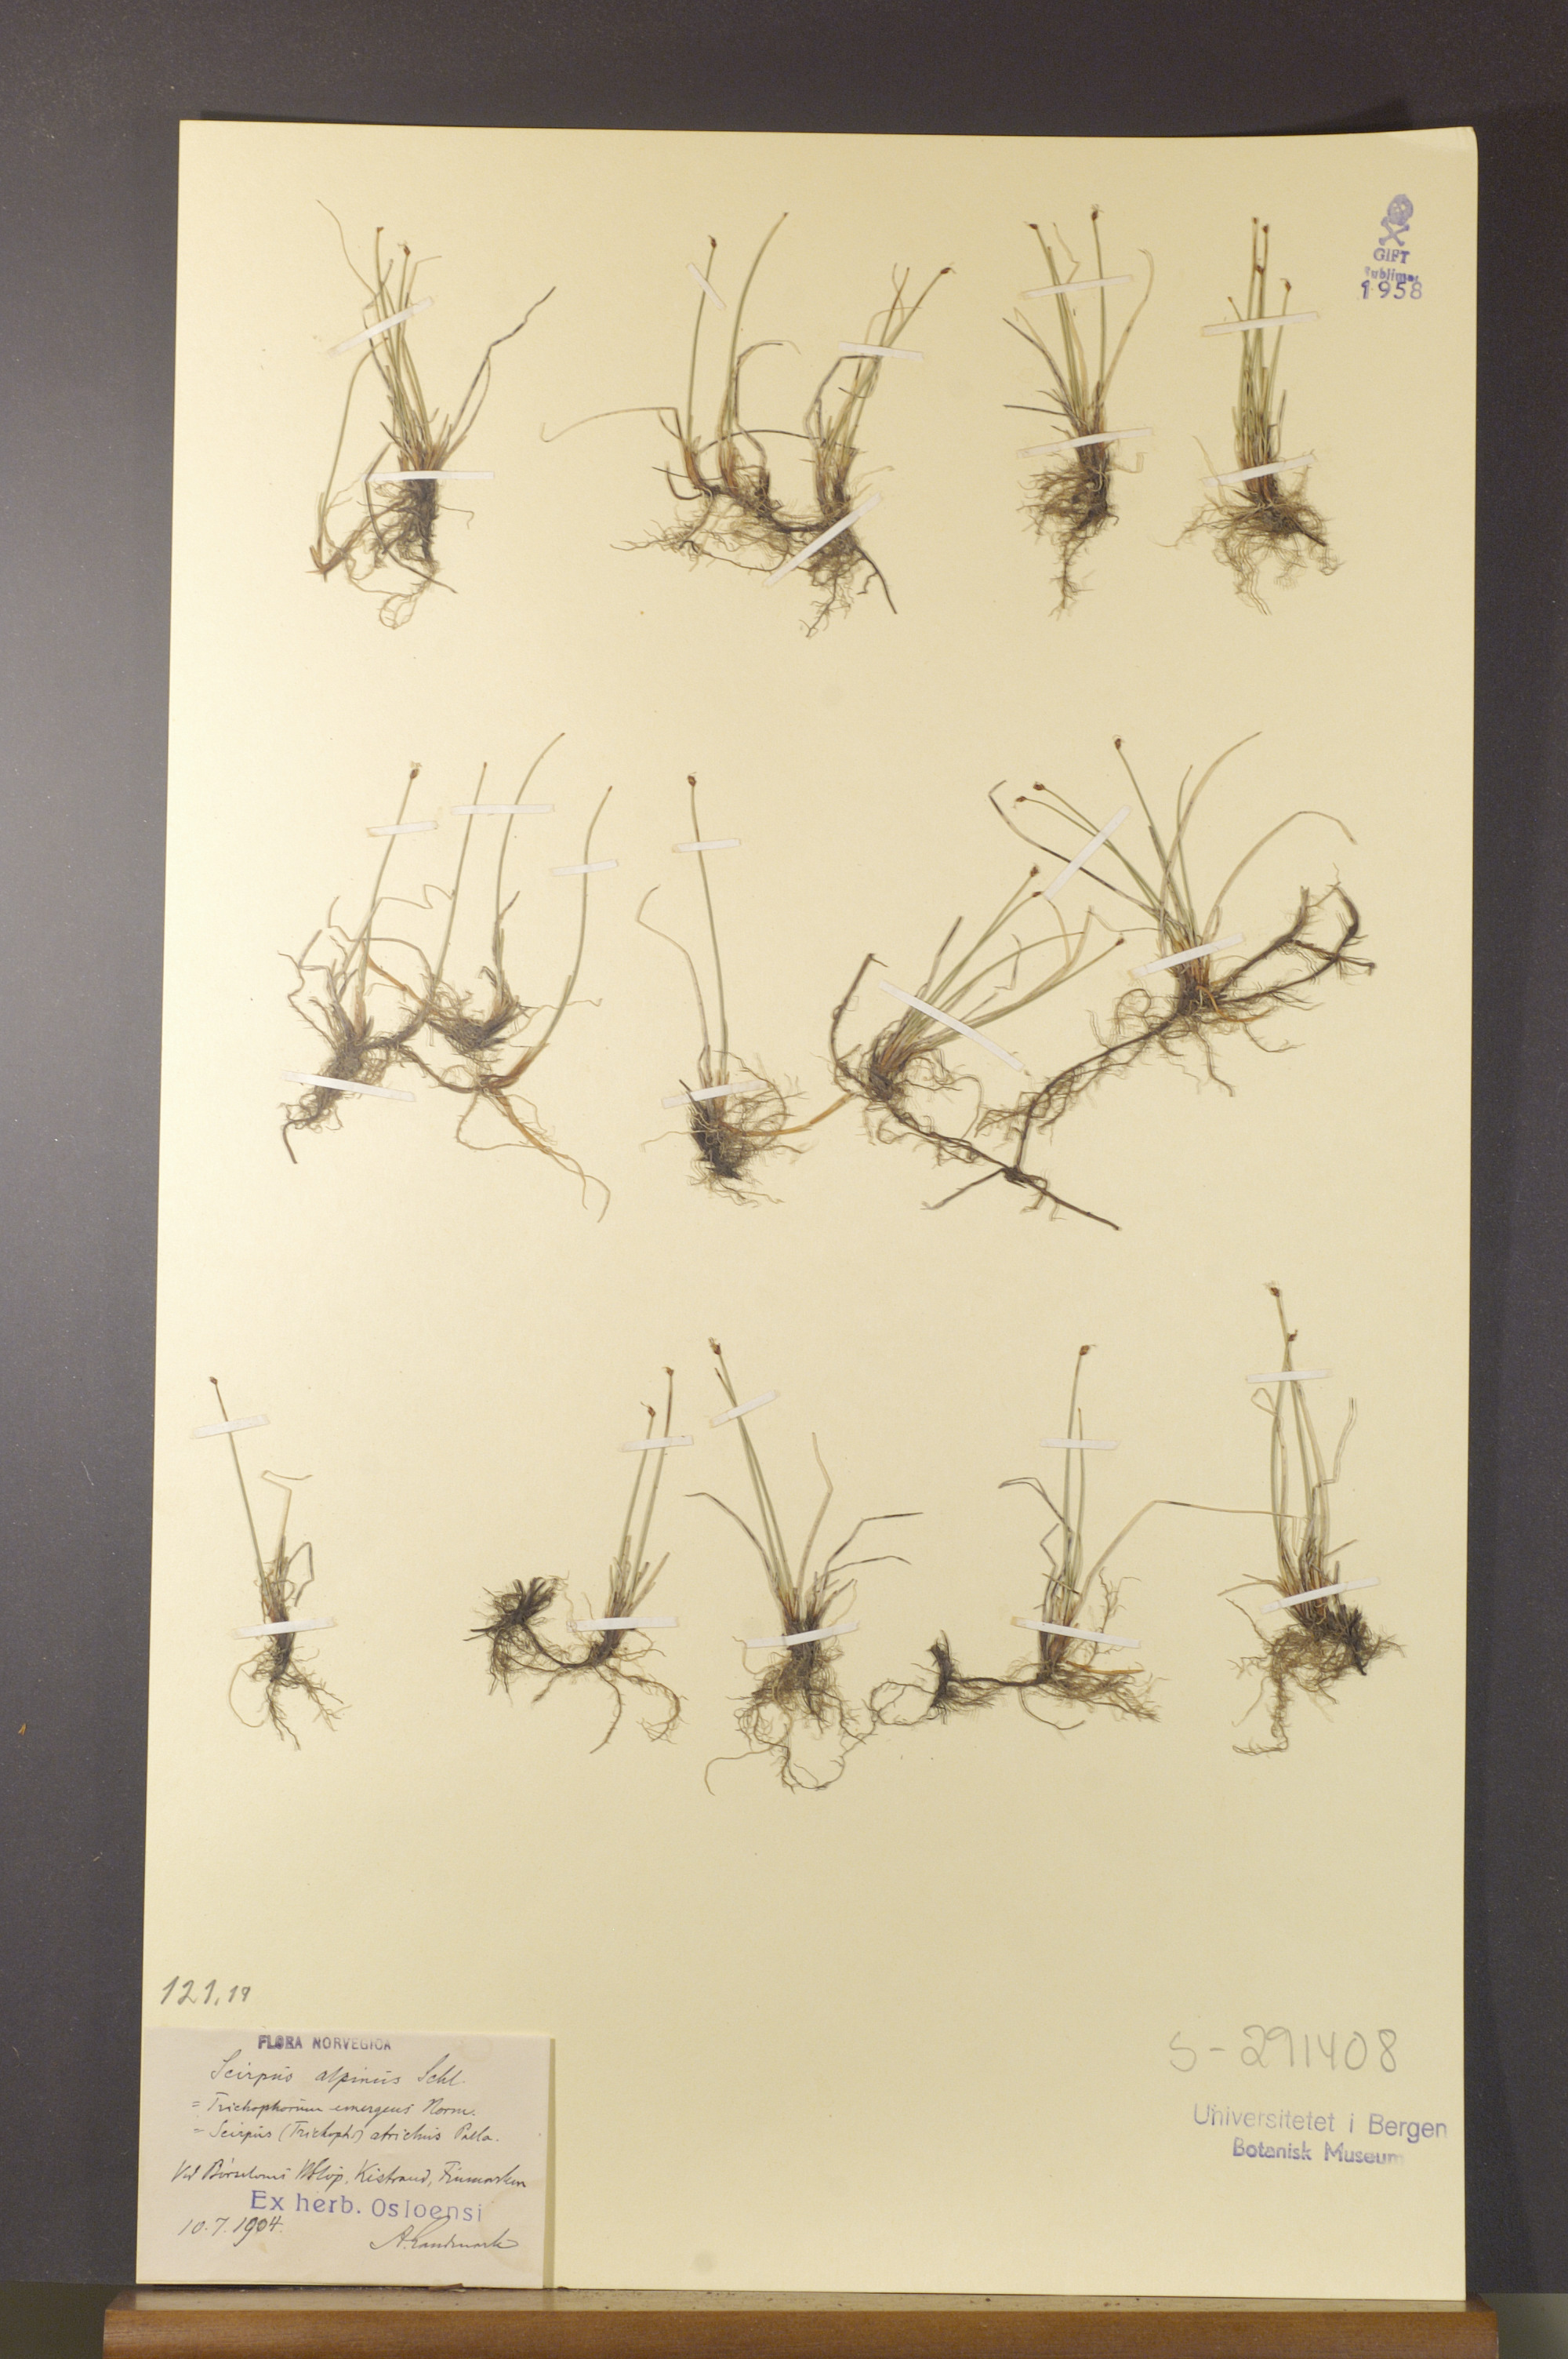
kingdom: Plantae
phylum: Tracheophyta
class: Liliopsida
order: Poales
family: Cyperaceae
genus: Trichophorum
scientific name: Trichophorum pumilum
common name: Rolland's bulrush
